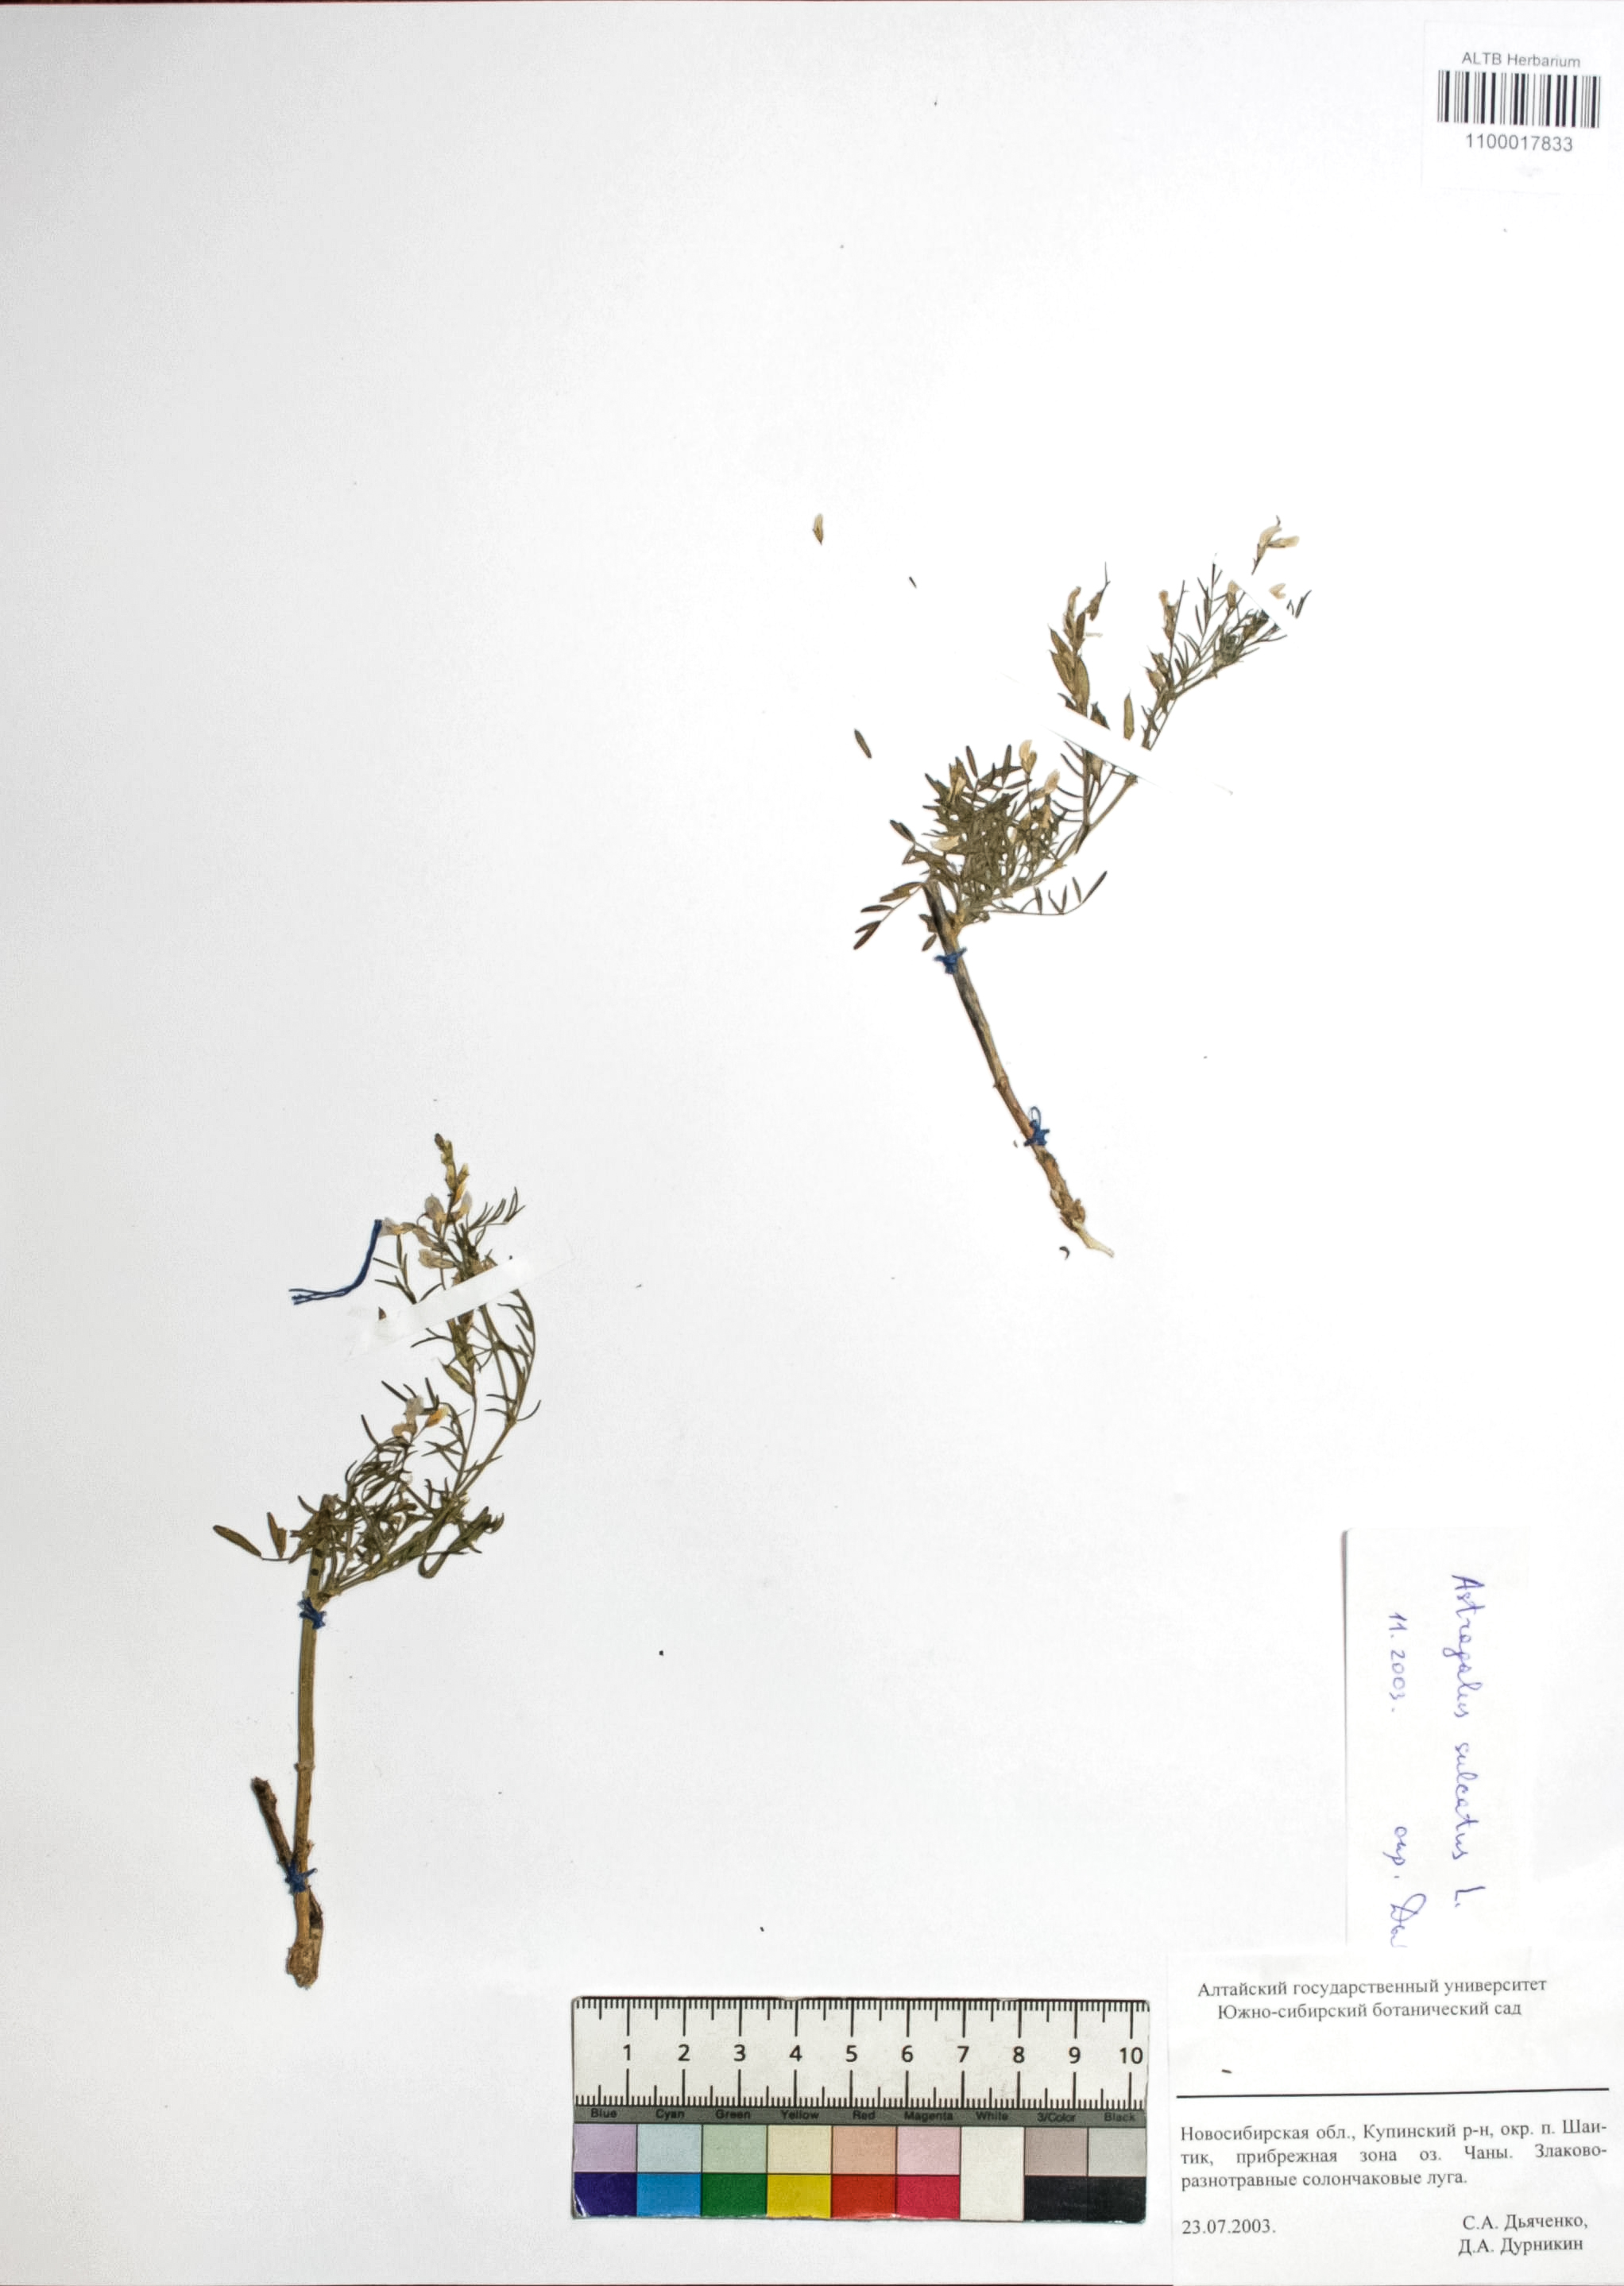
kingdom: Plantae
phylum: Tracheophyta
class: Magnoliopsida
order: Fabales
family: Fabaceae
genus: Astragalus
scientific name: Astragalus sulcatus
